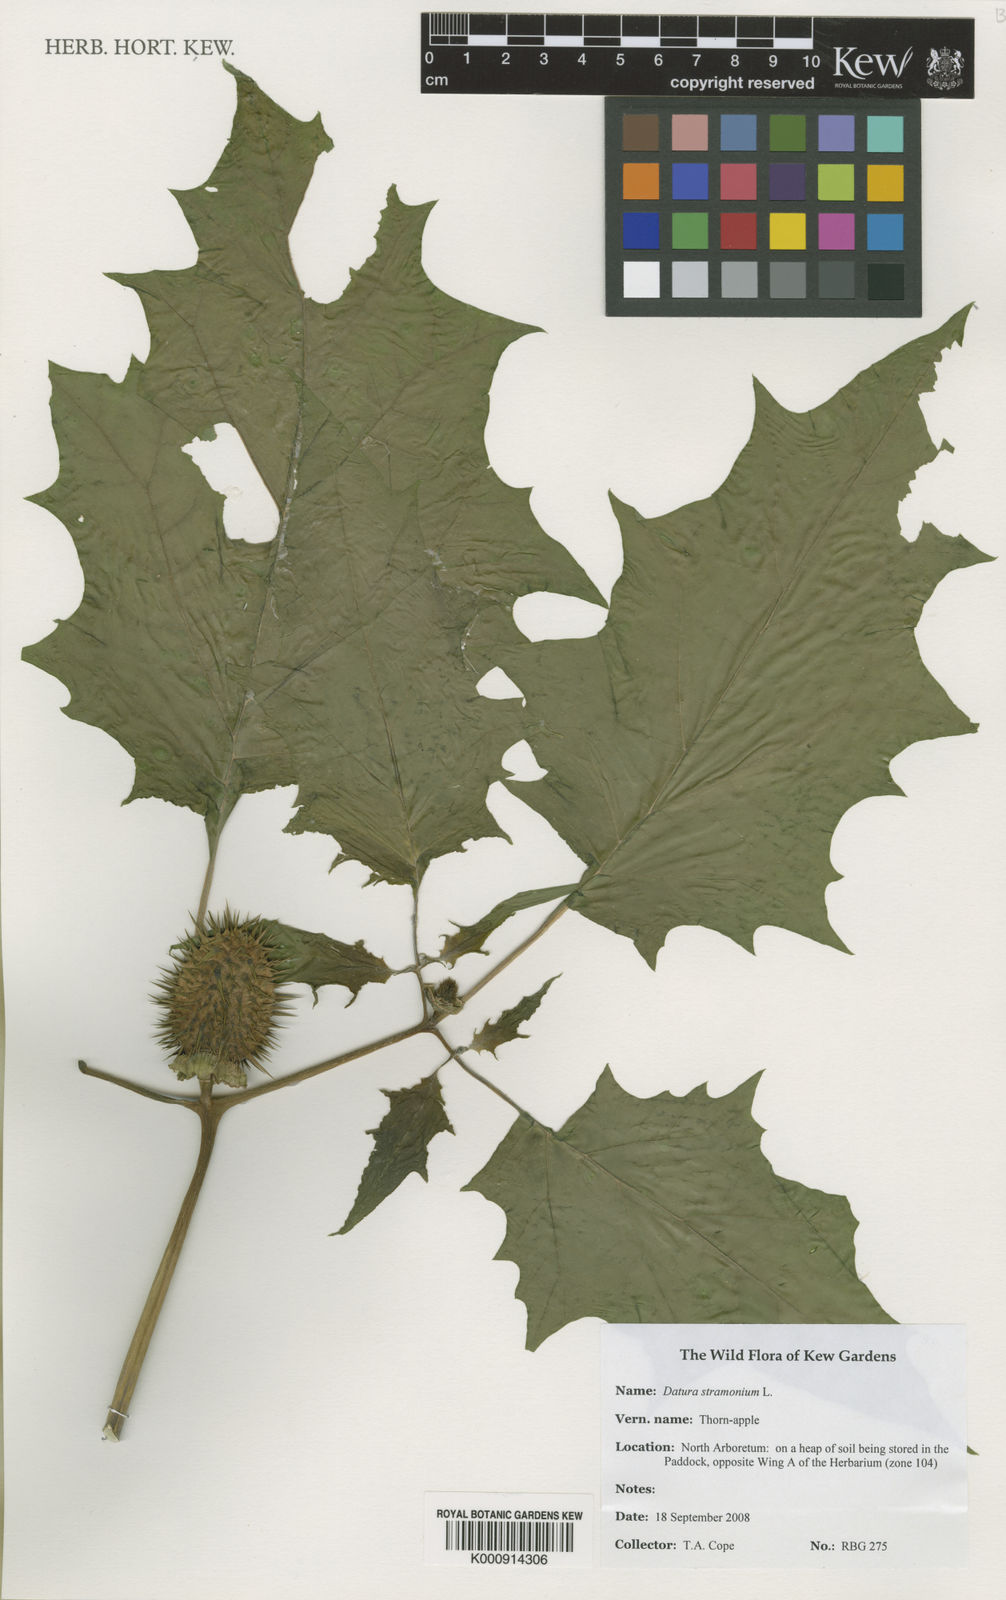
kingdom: Plantae
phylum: Tracheophyta
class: Magnoliopsida
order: Solanales
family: Solanaceae
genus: Datura
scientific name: Datura stramonium
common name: Thorn-apple
